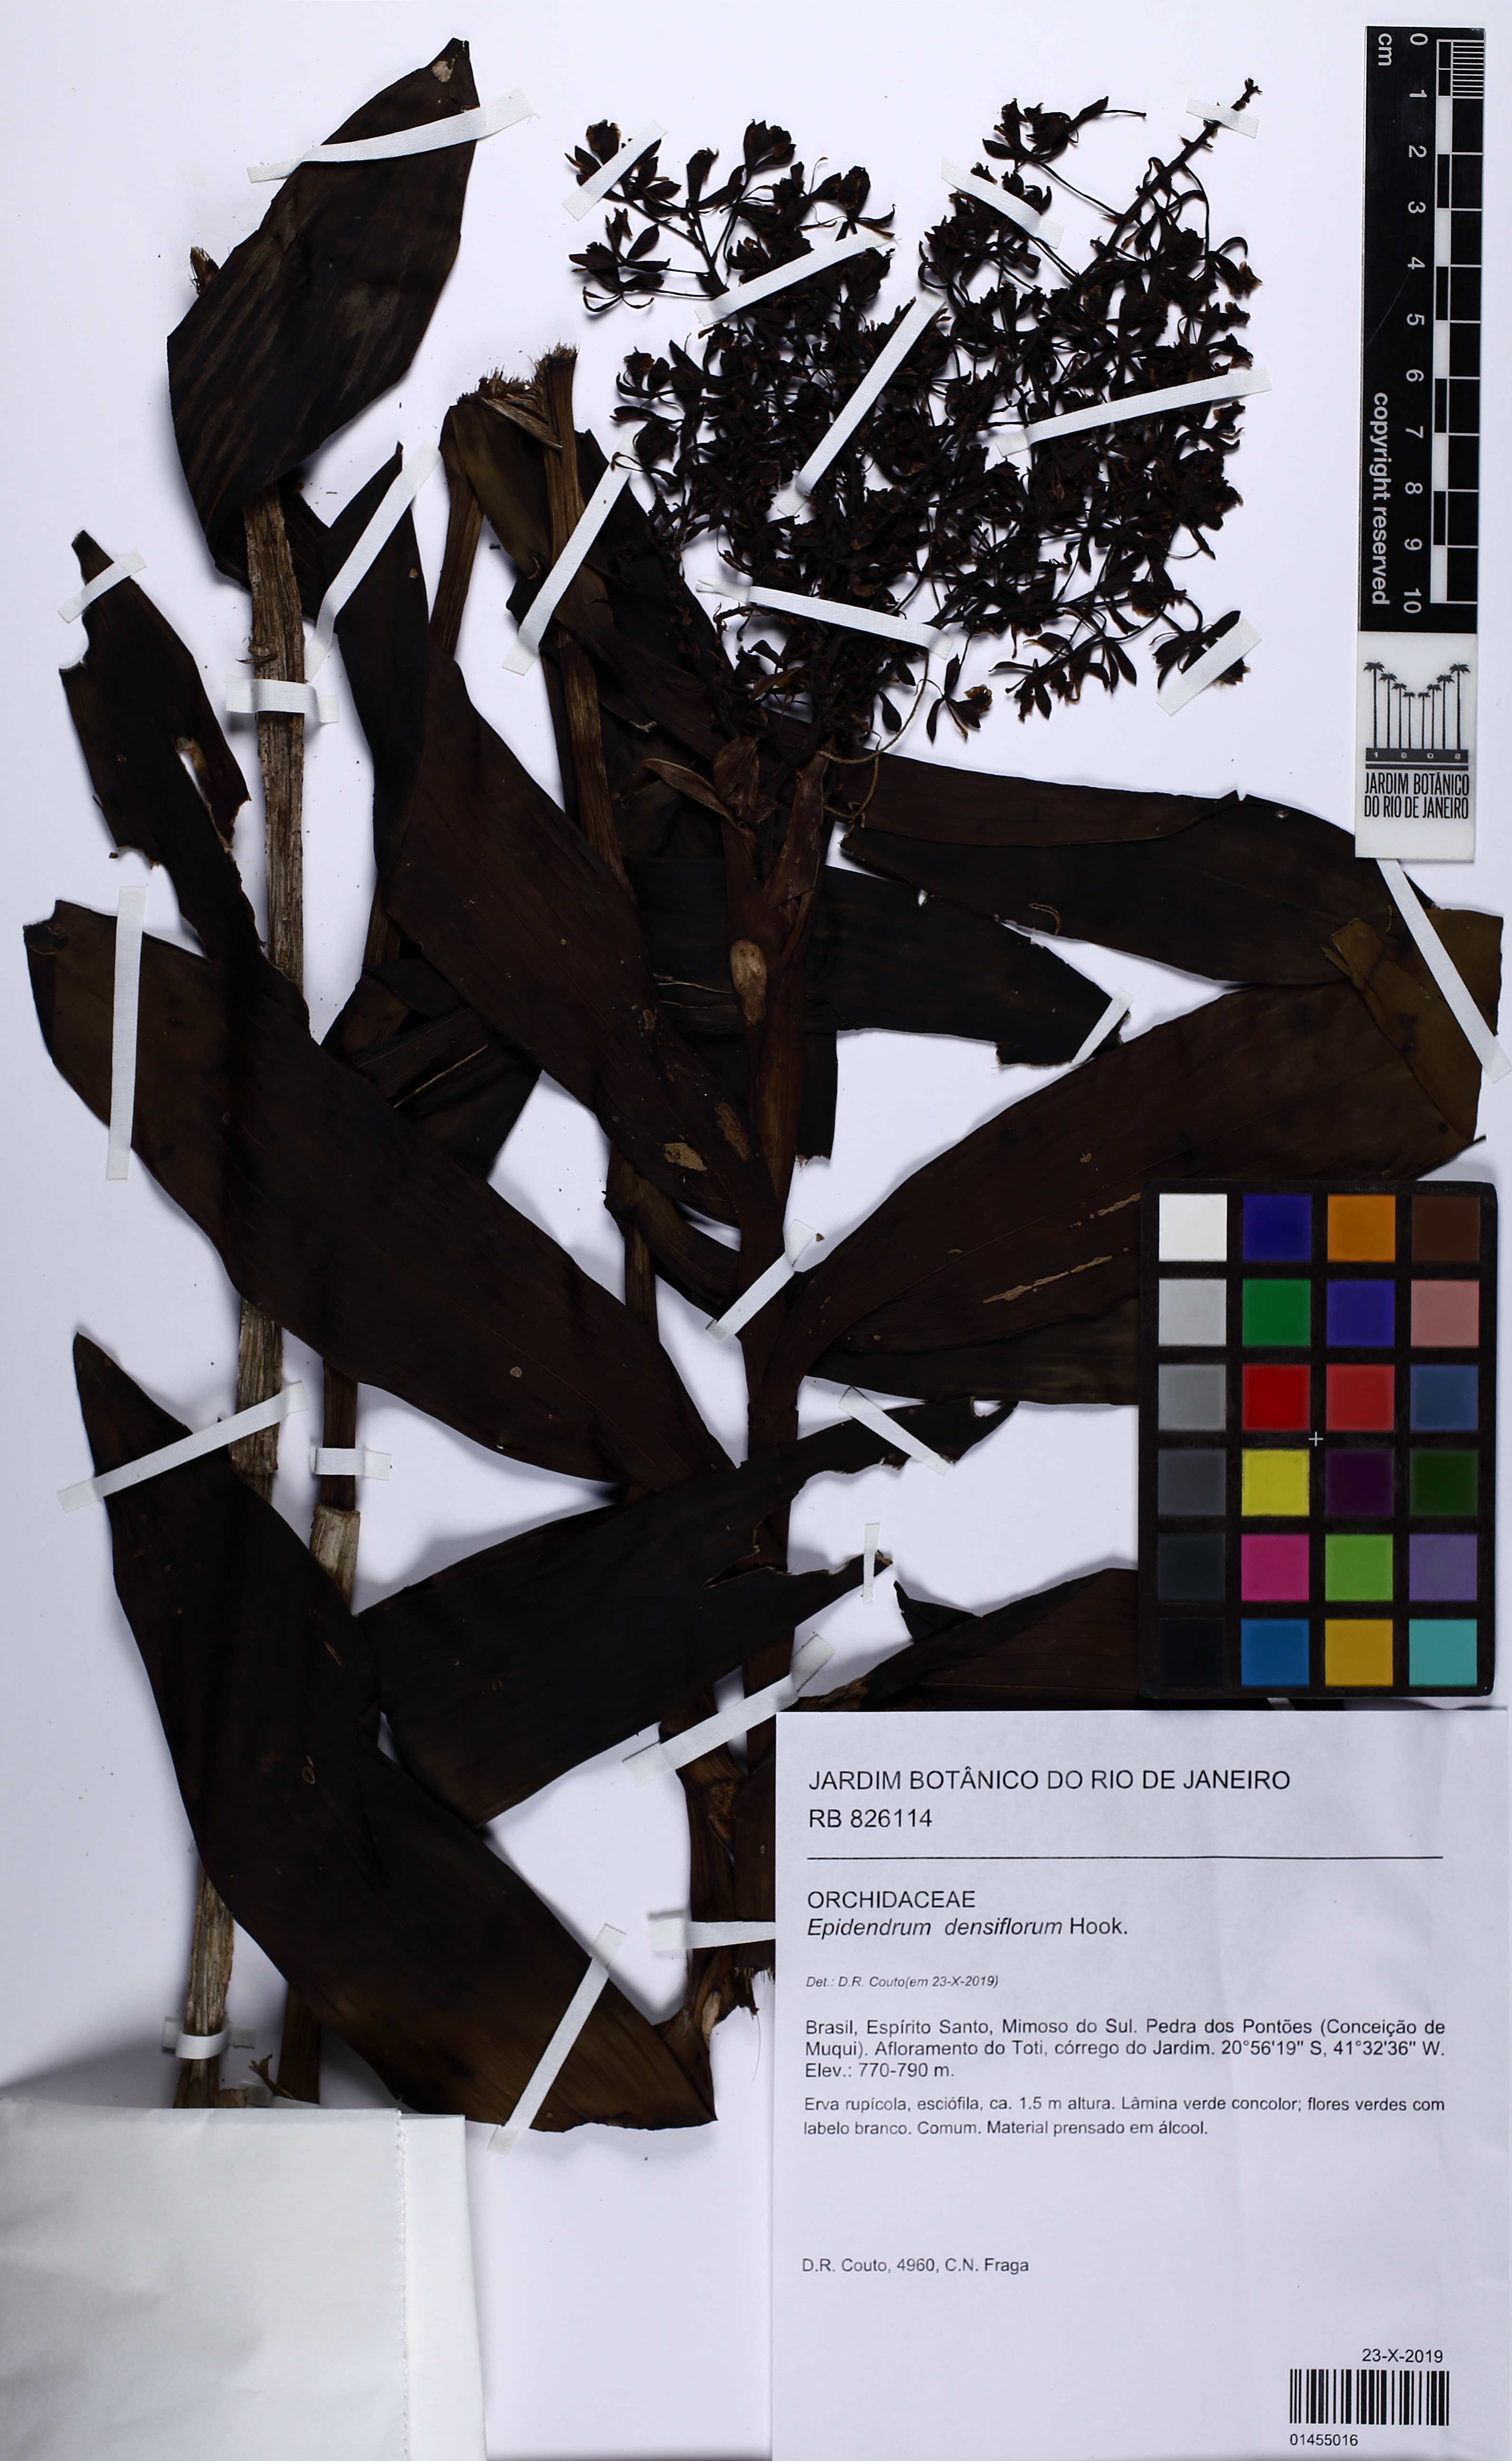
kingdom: Plantae
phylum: Tracheophyta
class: Liliopsida
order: Asparagales
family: Orchidaceae
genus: Epidendrum
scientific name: Epidendrum densiflorum
